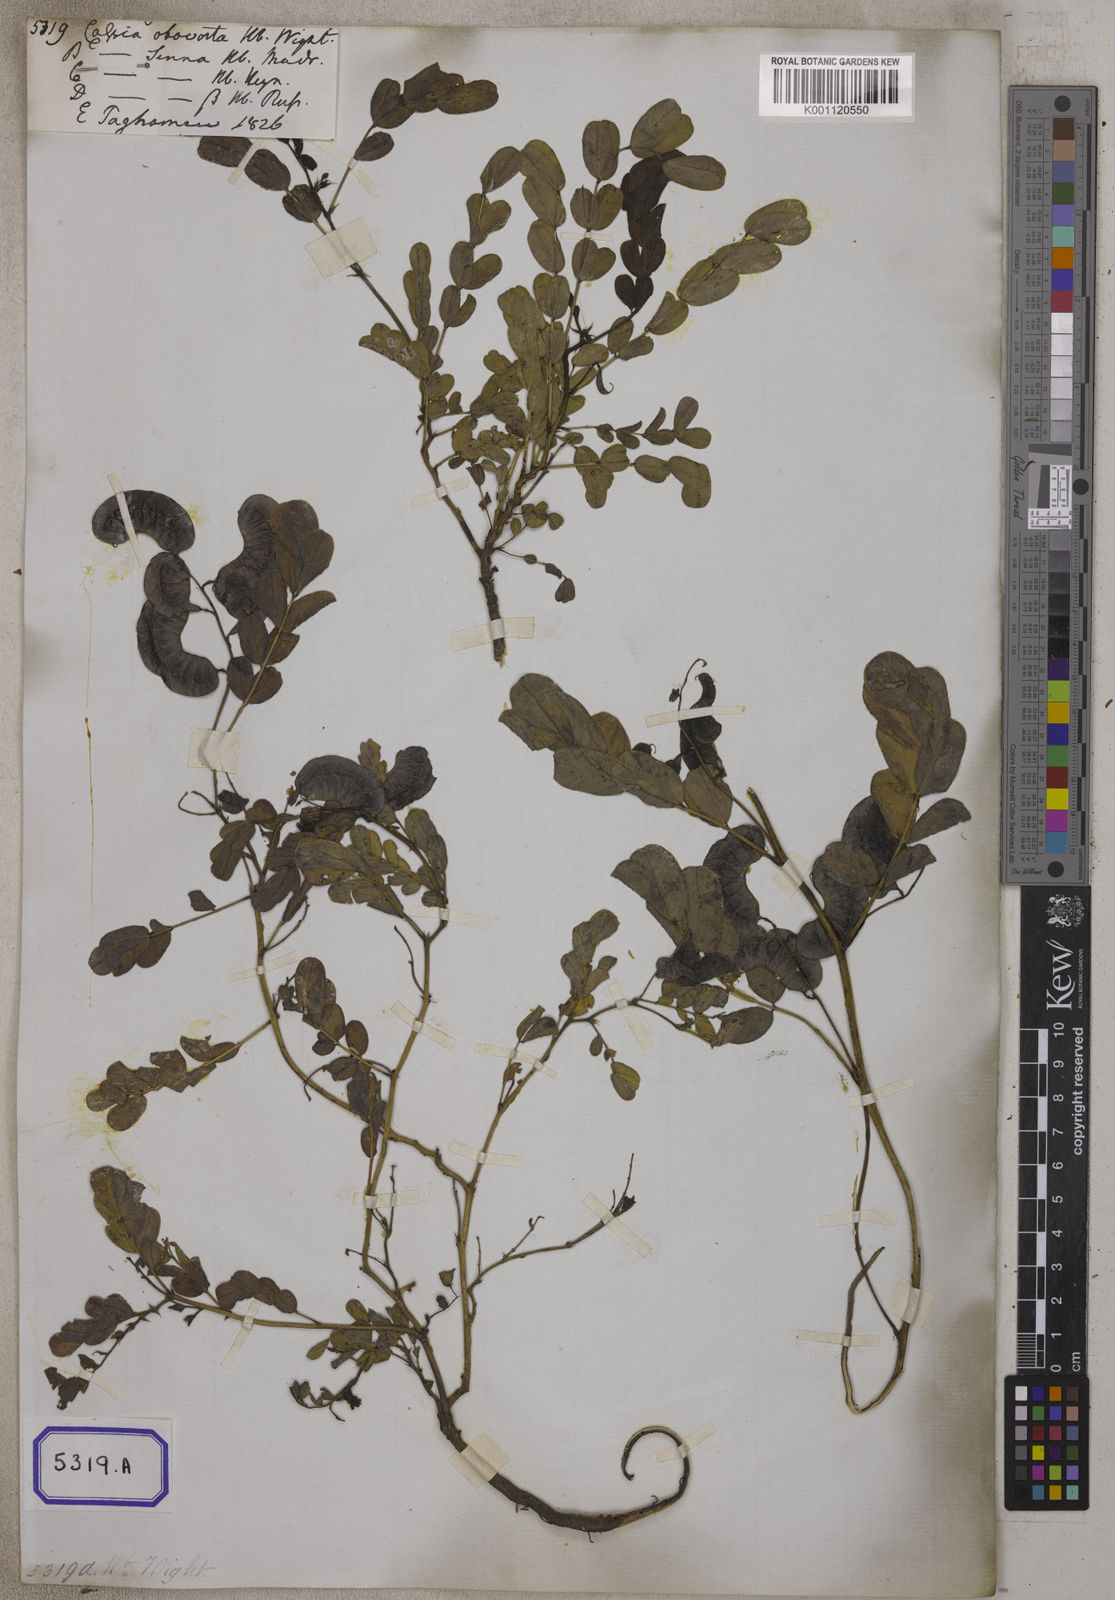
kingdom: Plantae
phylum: Tracheophyta
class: Magnoliopsida
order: Fabales
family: Fabaceae
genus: Senna
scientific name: Senna italica
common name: Port royal senna
